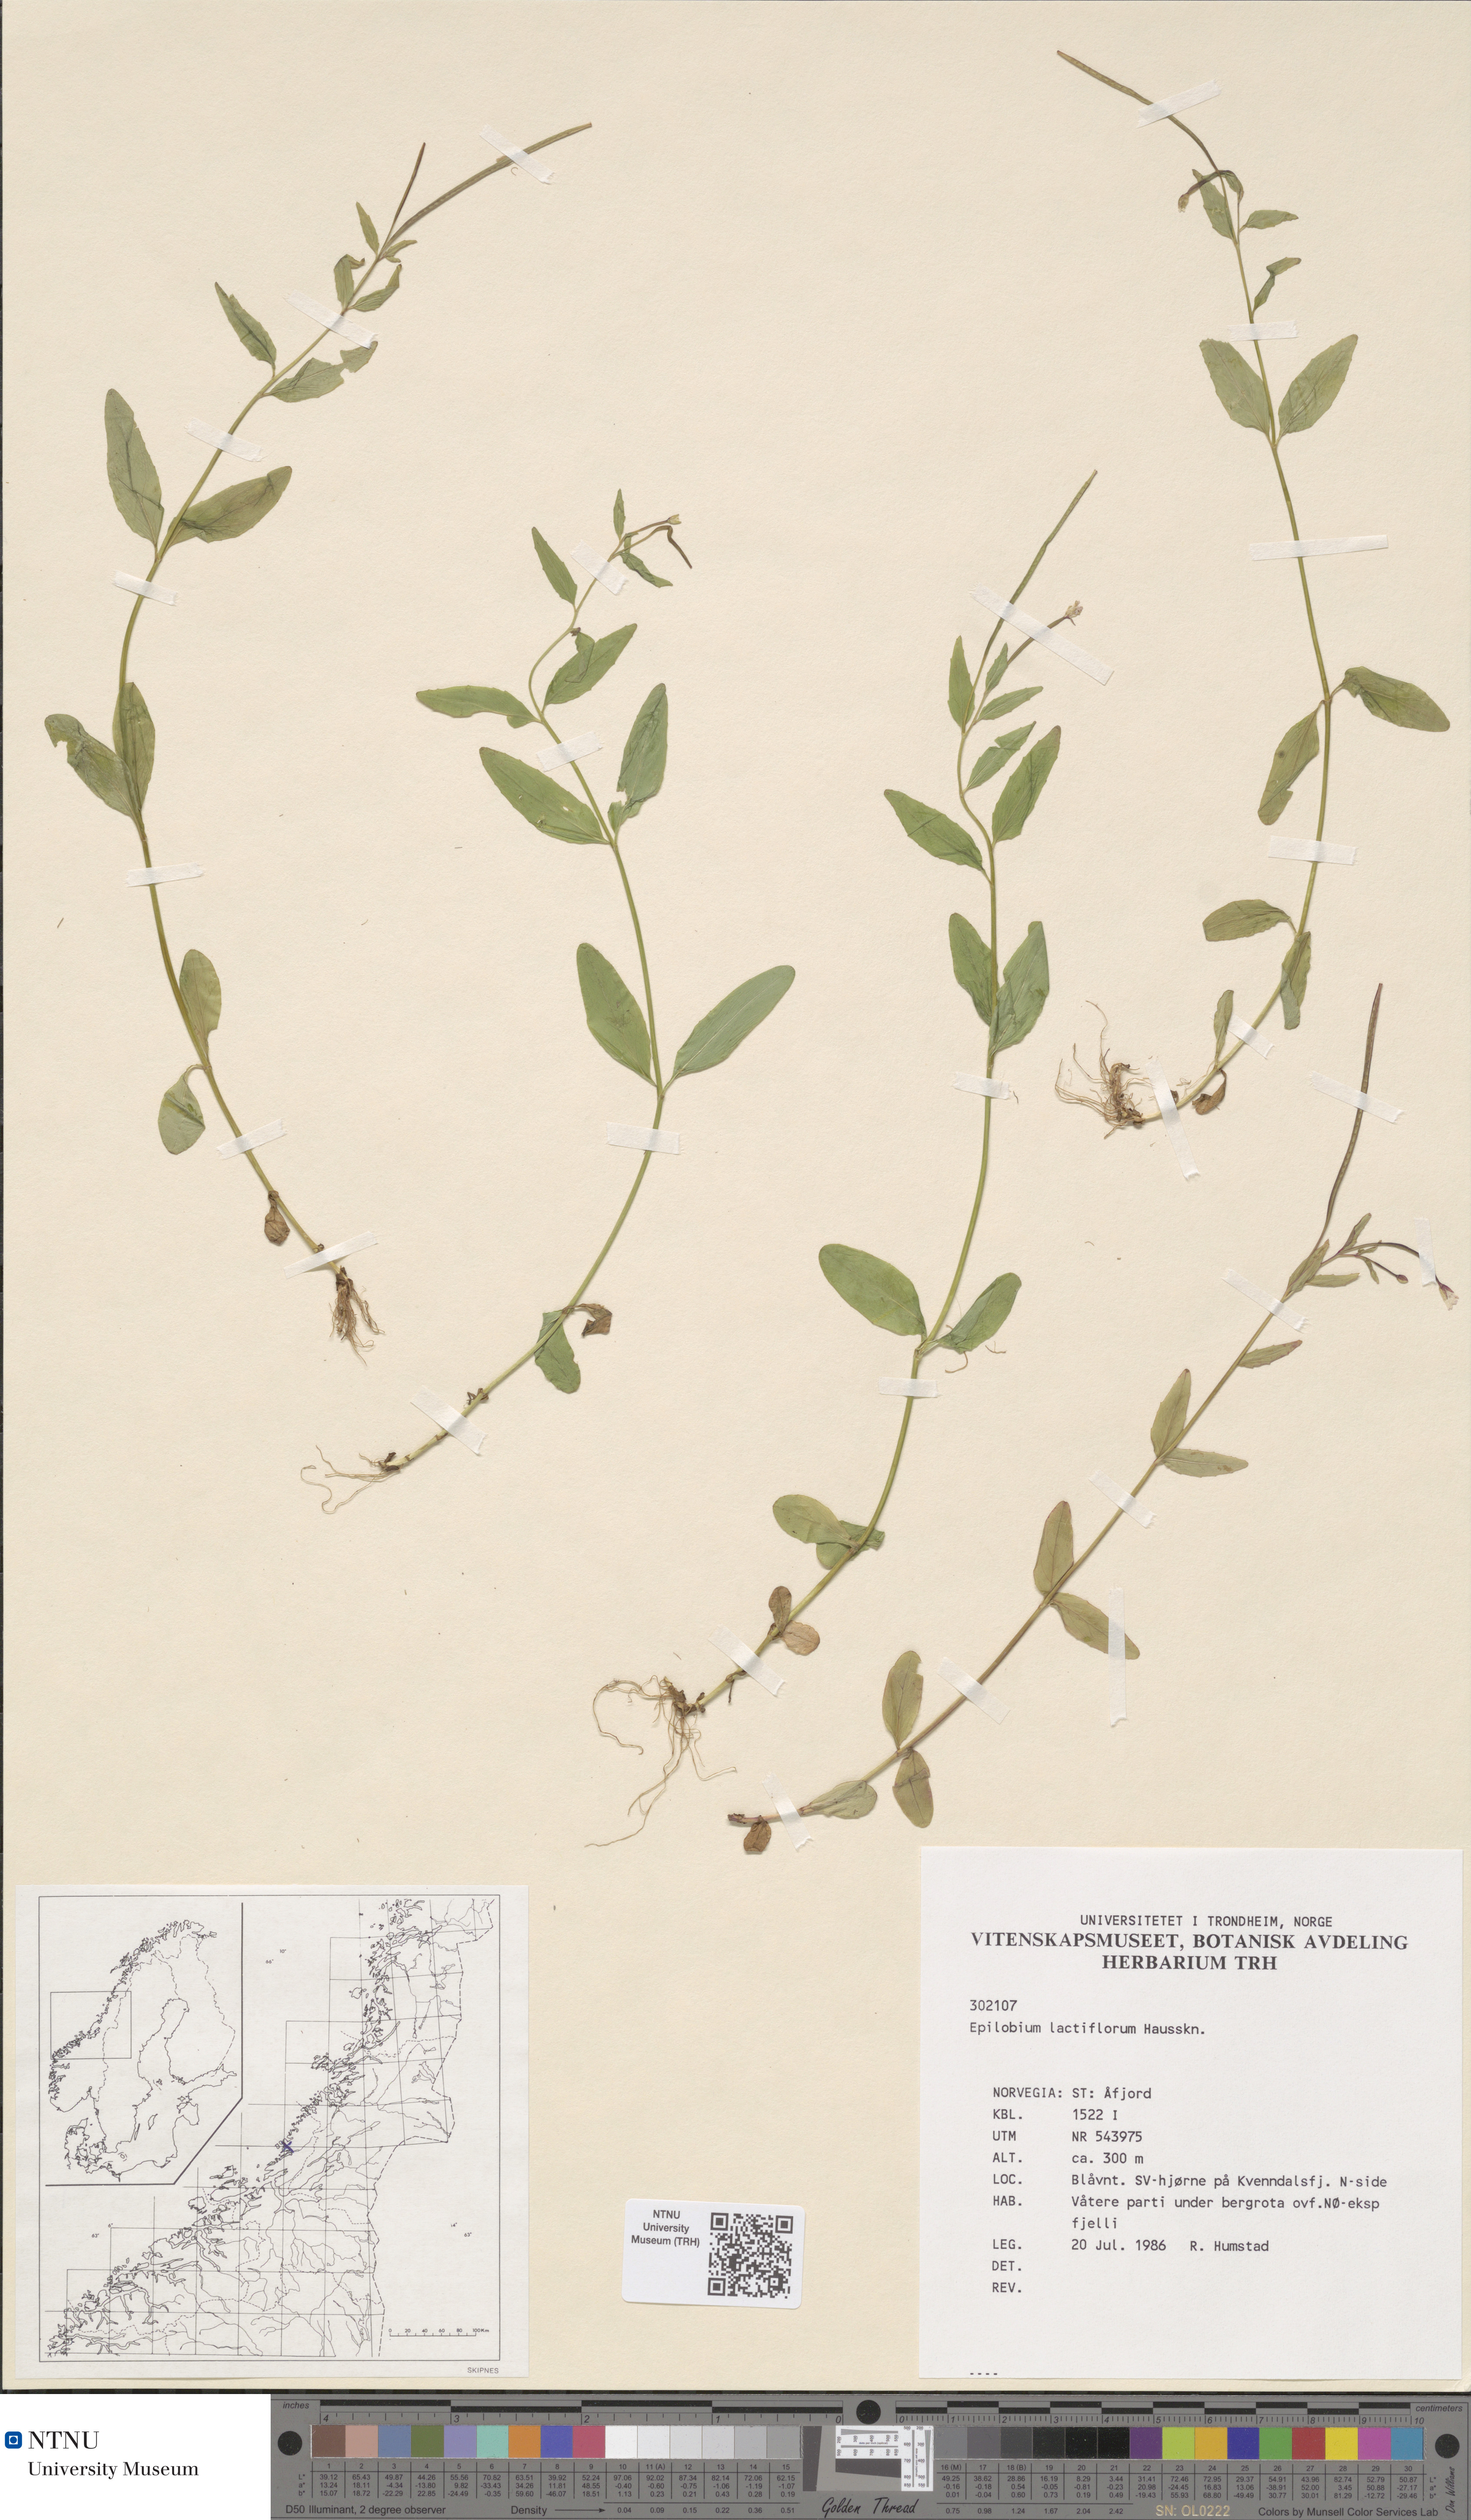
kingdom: Plantae
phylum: Tracheophyta
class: Magnoliopsida
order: Myrtales
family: Onagraceae
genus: Epilobium
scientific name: Epilobium lactiflorum
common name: Milkflower willowherb
